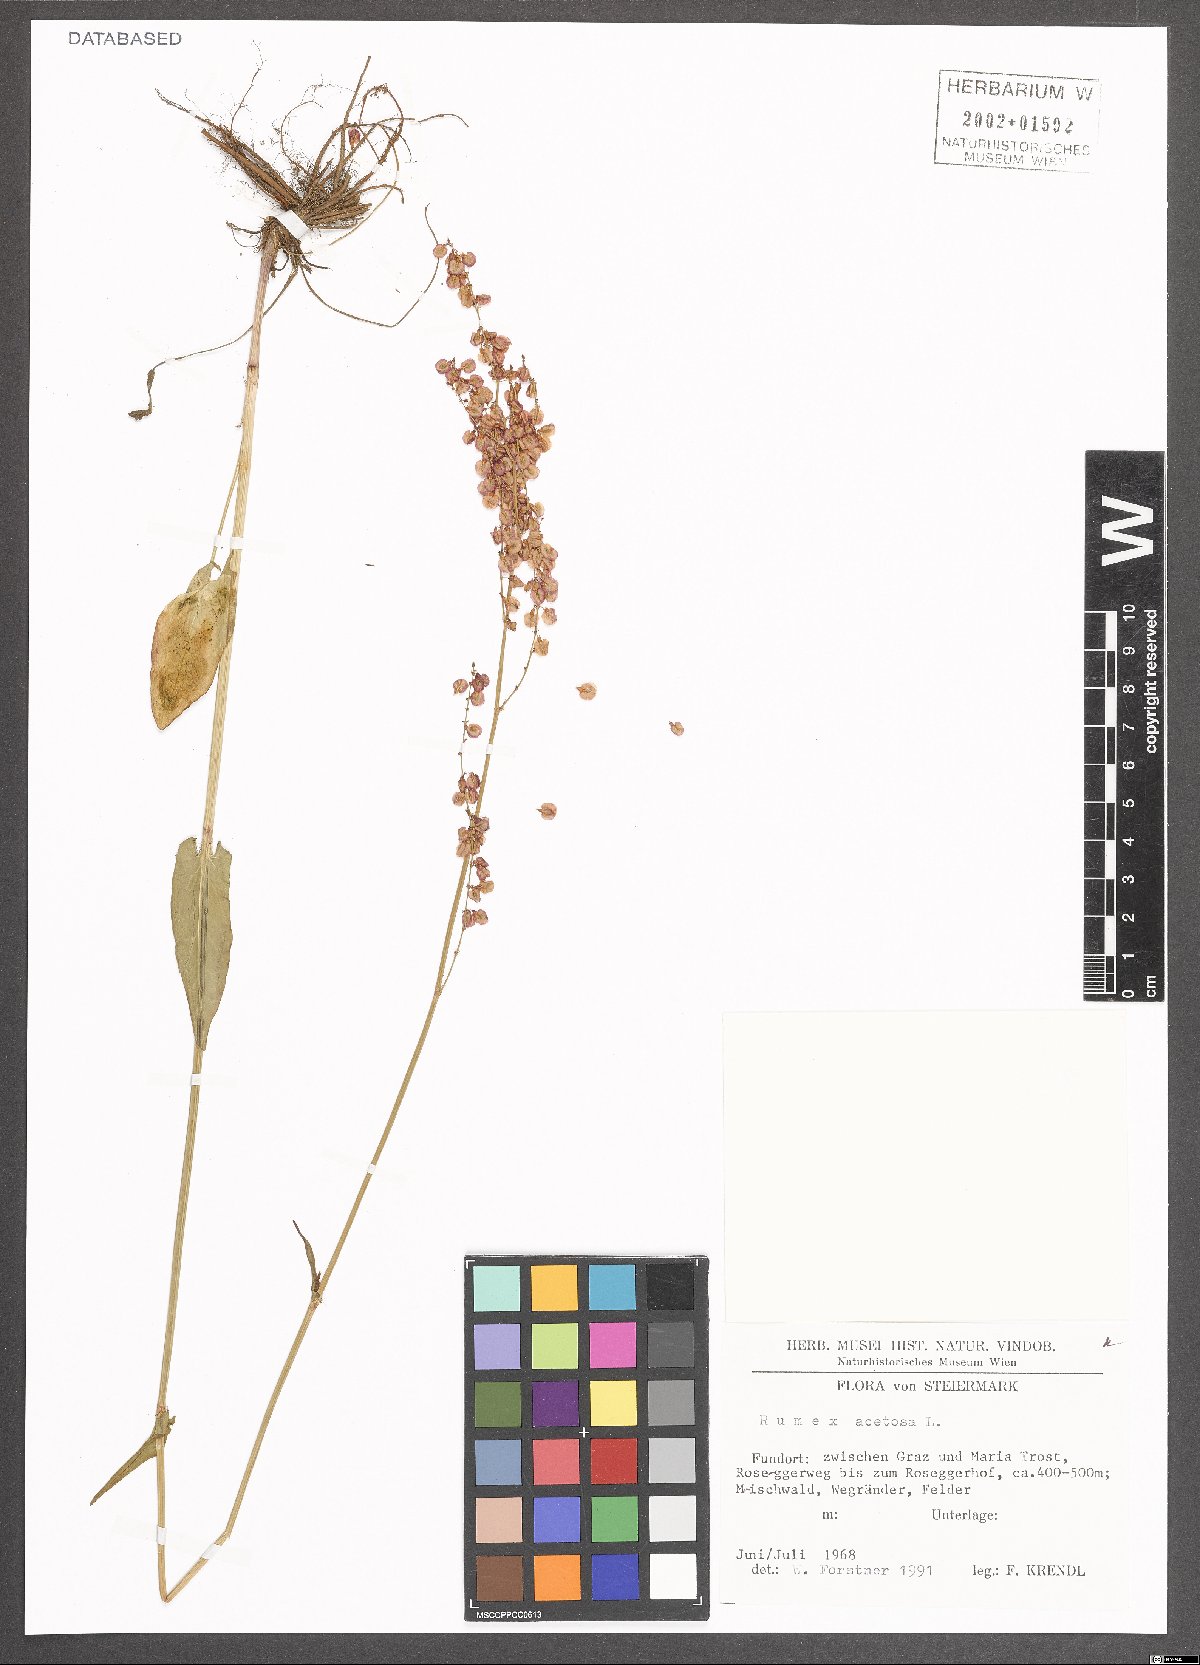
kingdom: Plantae
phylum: Tracheophyta
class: Magnoliopsida
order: Caryophyllales
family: Polygonaceae
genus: Rumex
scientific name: Rumex acetosa
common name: Garden sorrel
